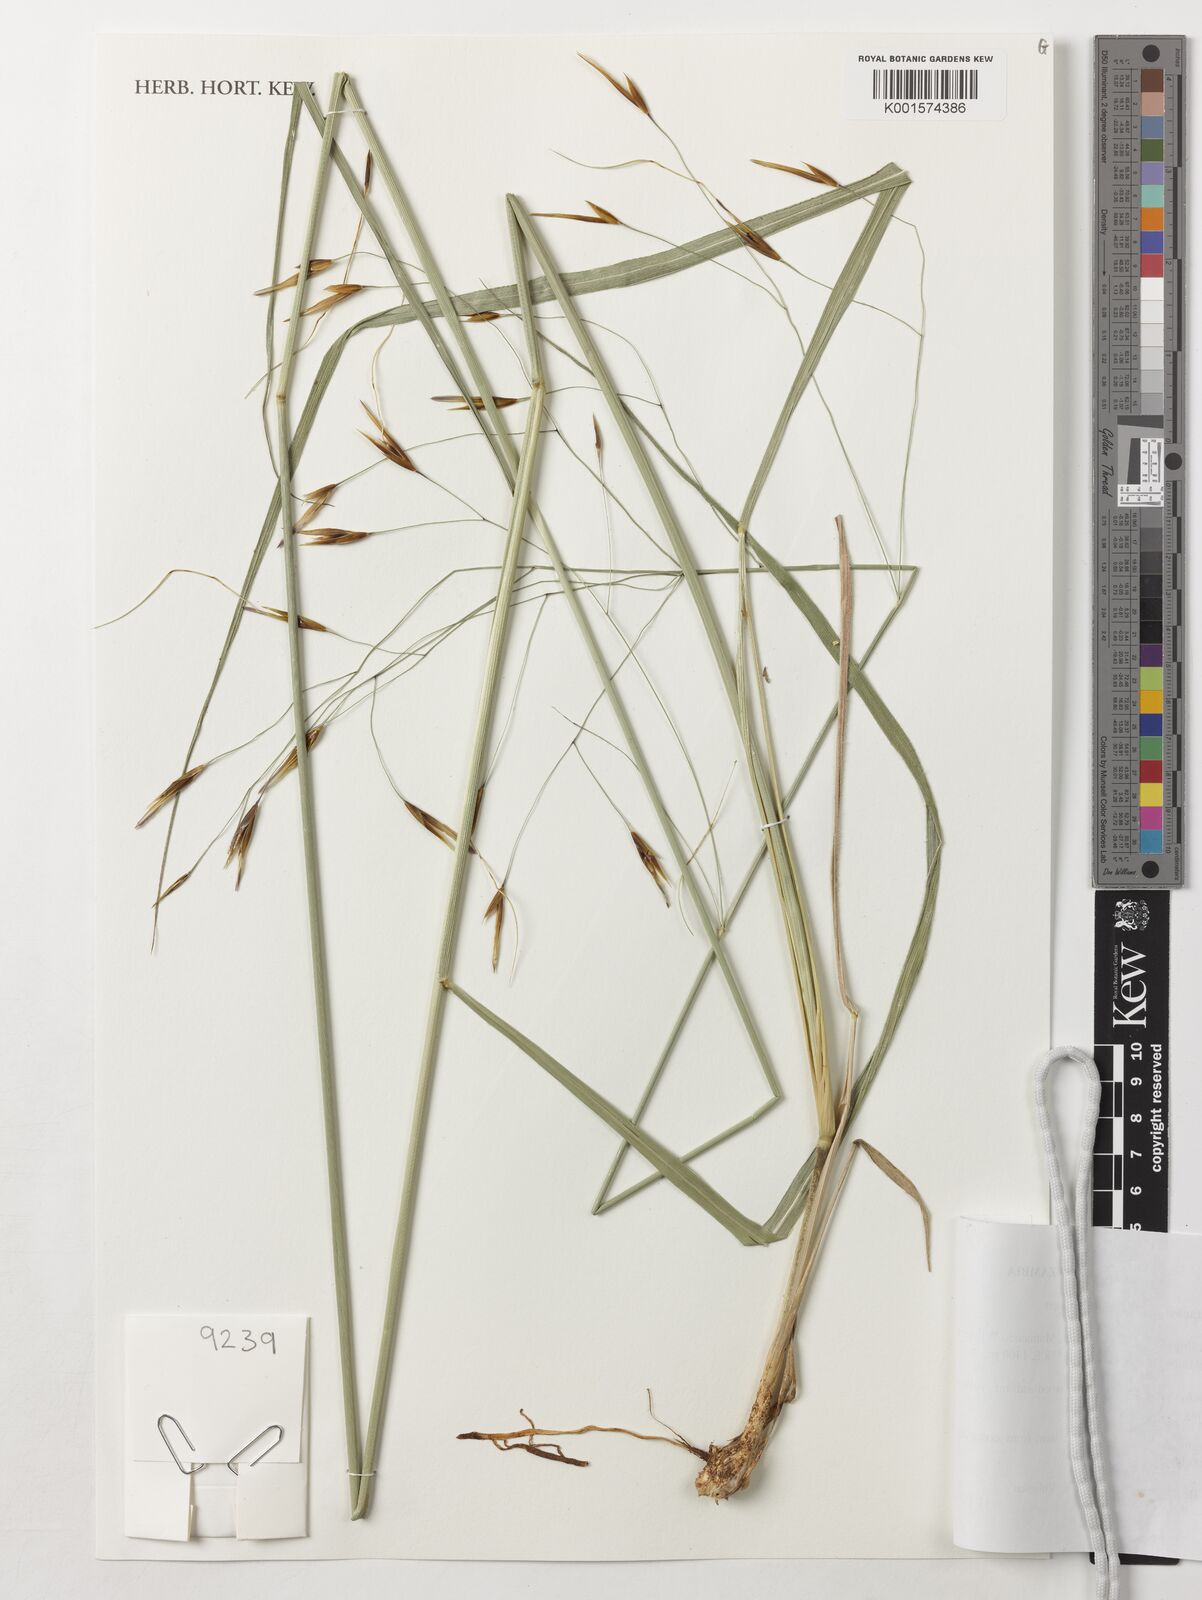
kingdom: Plantae
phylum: Tracheophyta
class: Liliopsida
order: Poales
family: Poaceae
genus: Tristachya
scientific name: Tristachya hubbardiana
